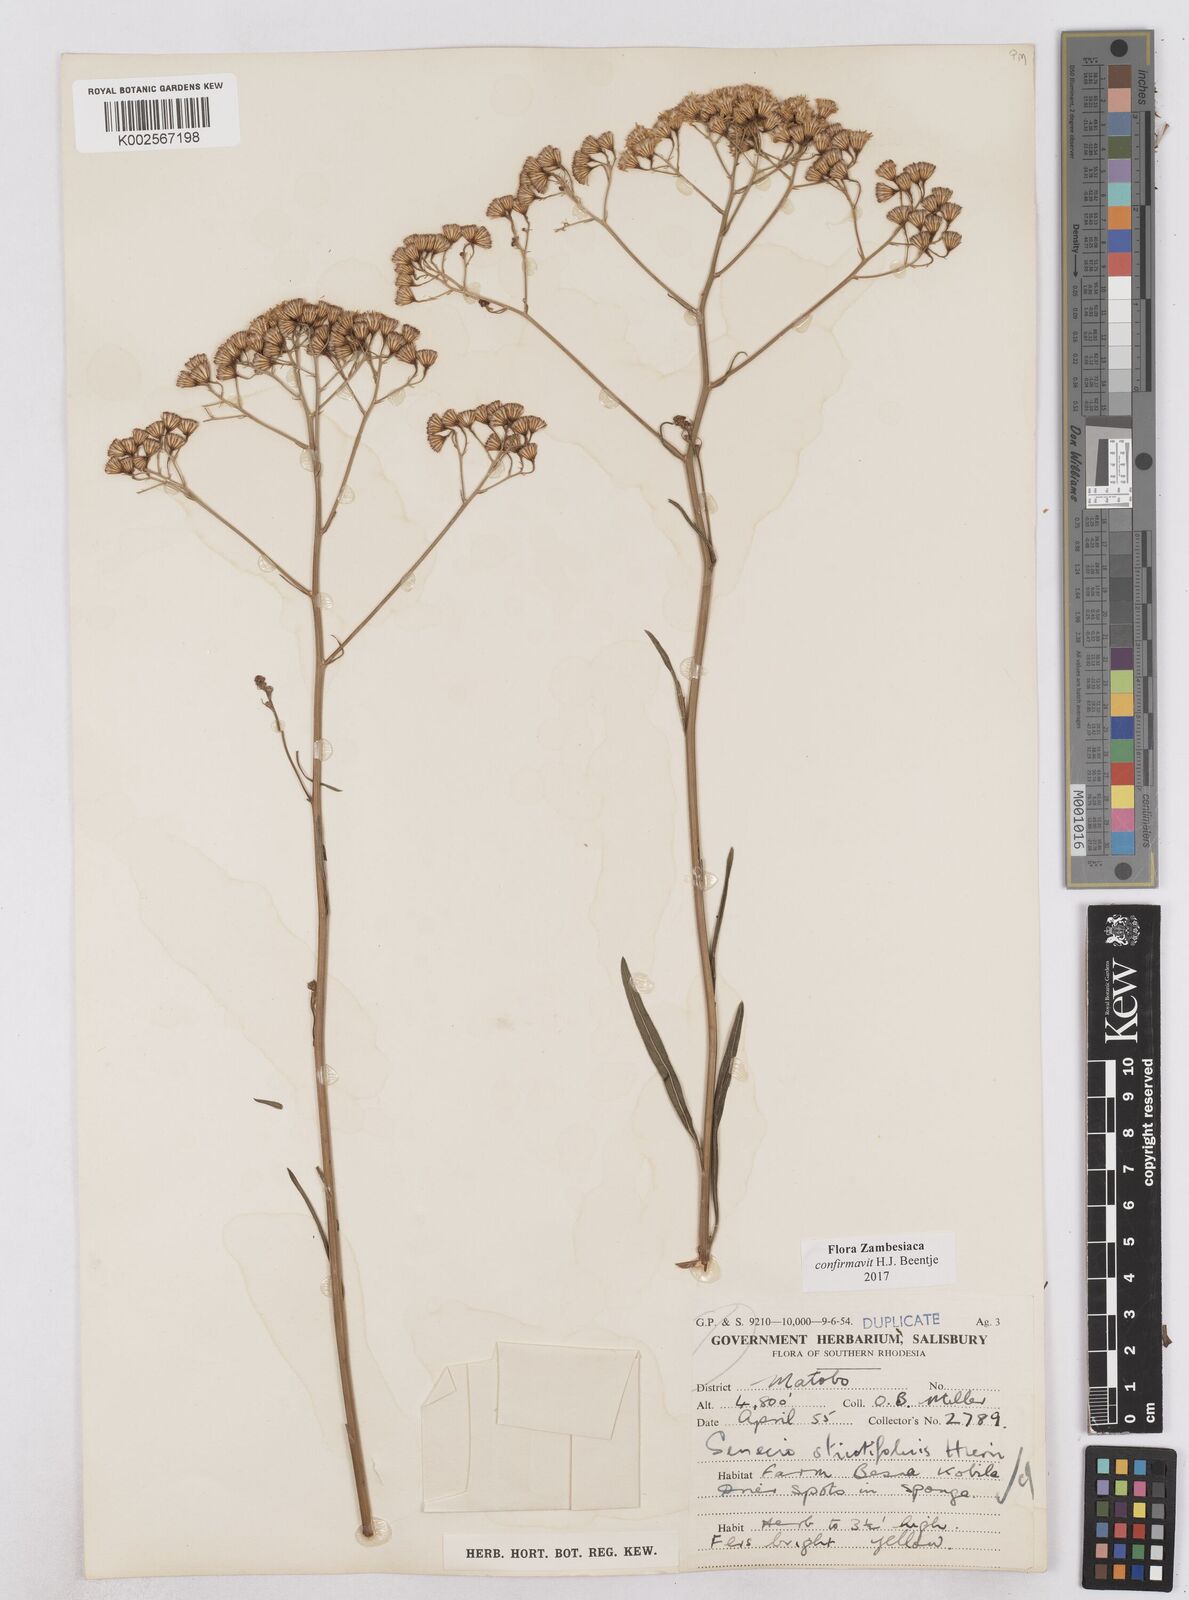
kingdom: Plantae
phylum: Tracheophyta
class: Magnoliopsida
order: Asterales
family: Asteraceae
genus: Senecio
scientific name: Senecio strictifolius
